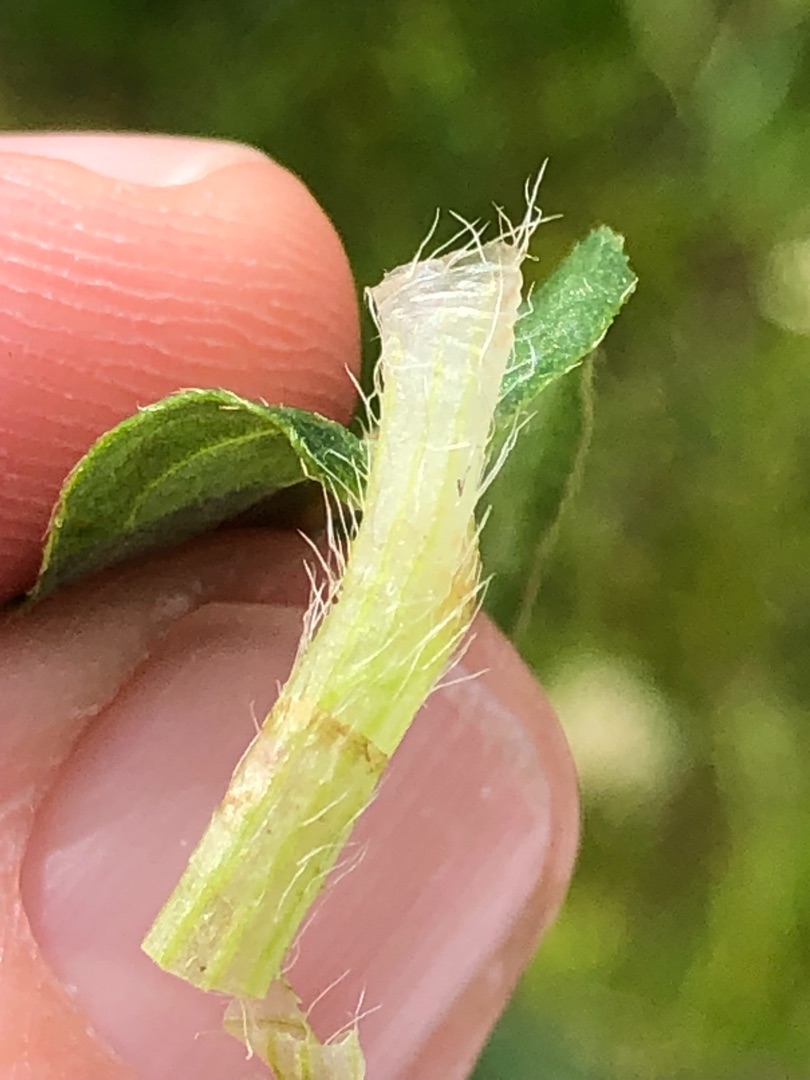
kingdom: Plantae
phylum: Tracheophyta
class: Magnoliopsida
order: Caryophyllales
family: Polygonaceae
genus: Persicaria
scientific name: Persicaria amphibia
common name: Vand-pileurt
